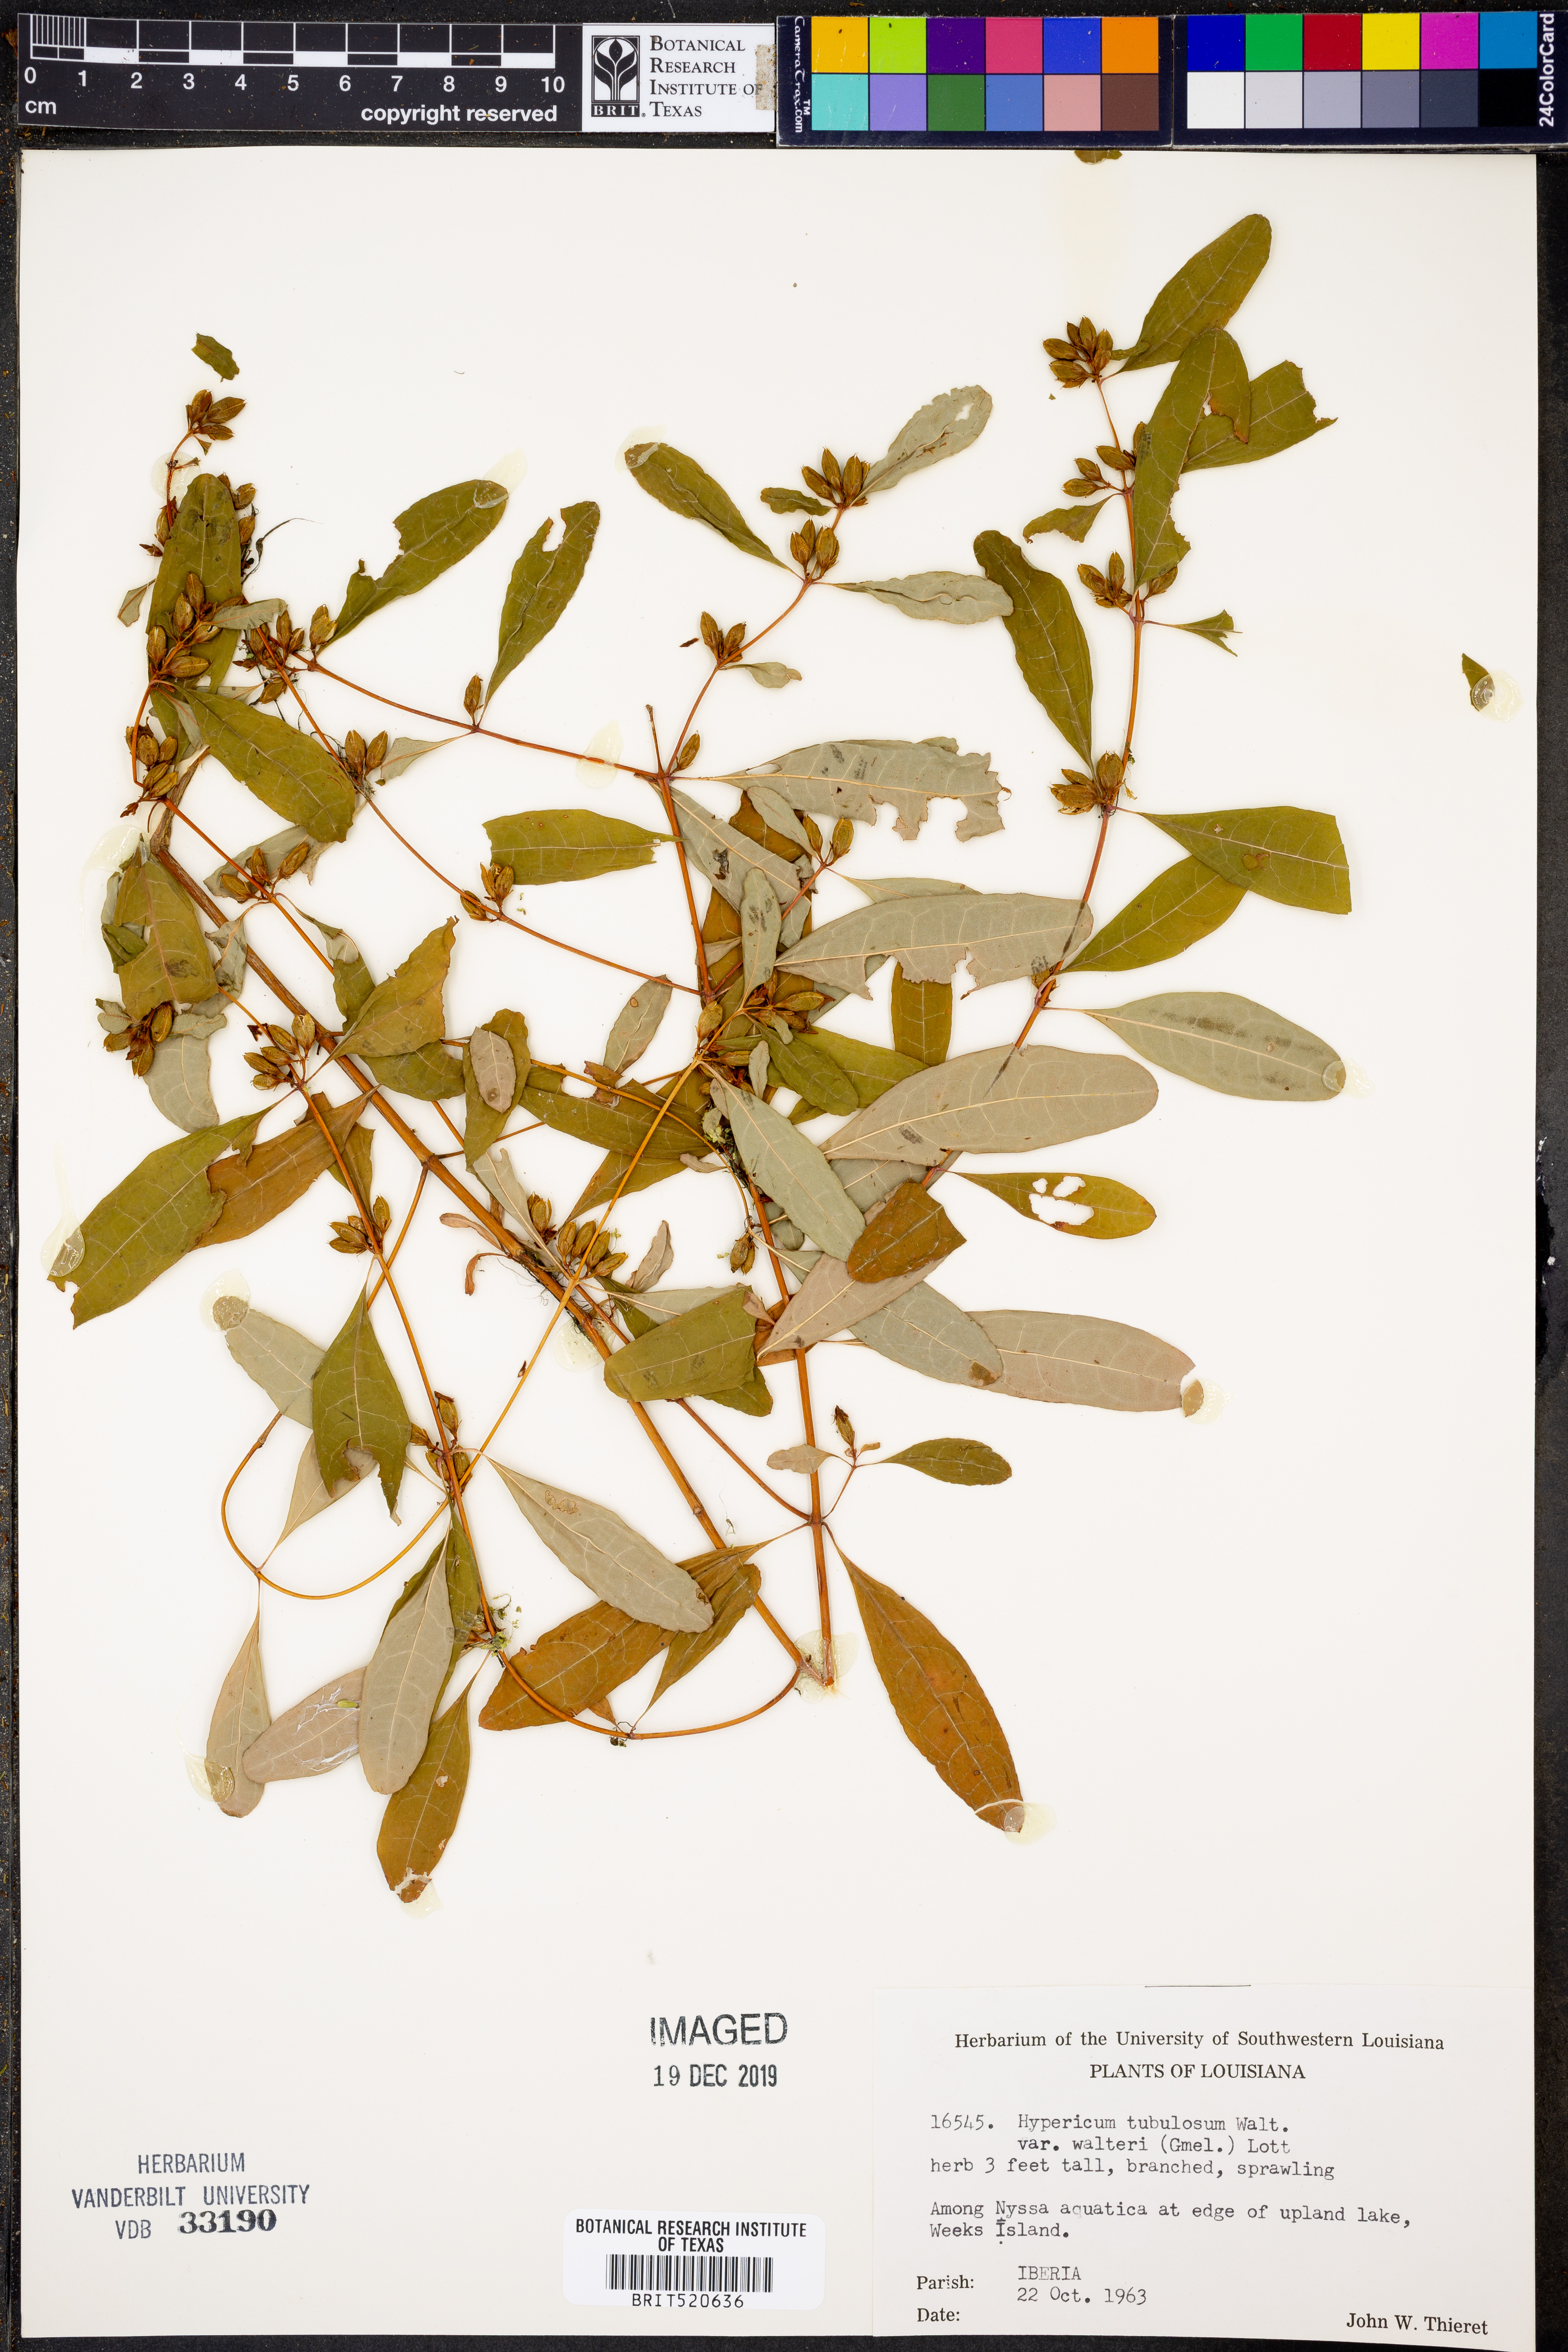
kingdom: Plantae
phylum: Tracheophyta
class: Magnoliopsida
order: Malpighiales
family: Hypericaceae
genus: Triadenum
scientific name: Triadenum walteri
